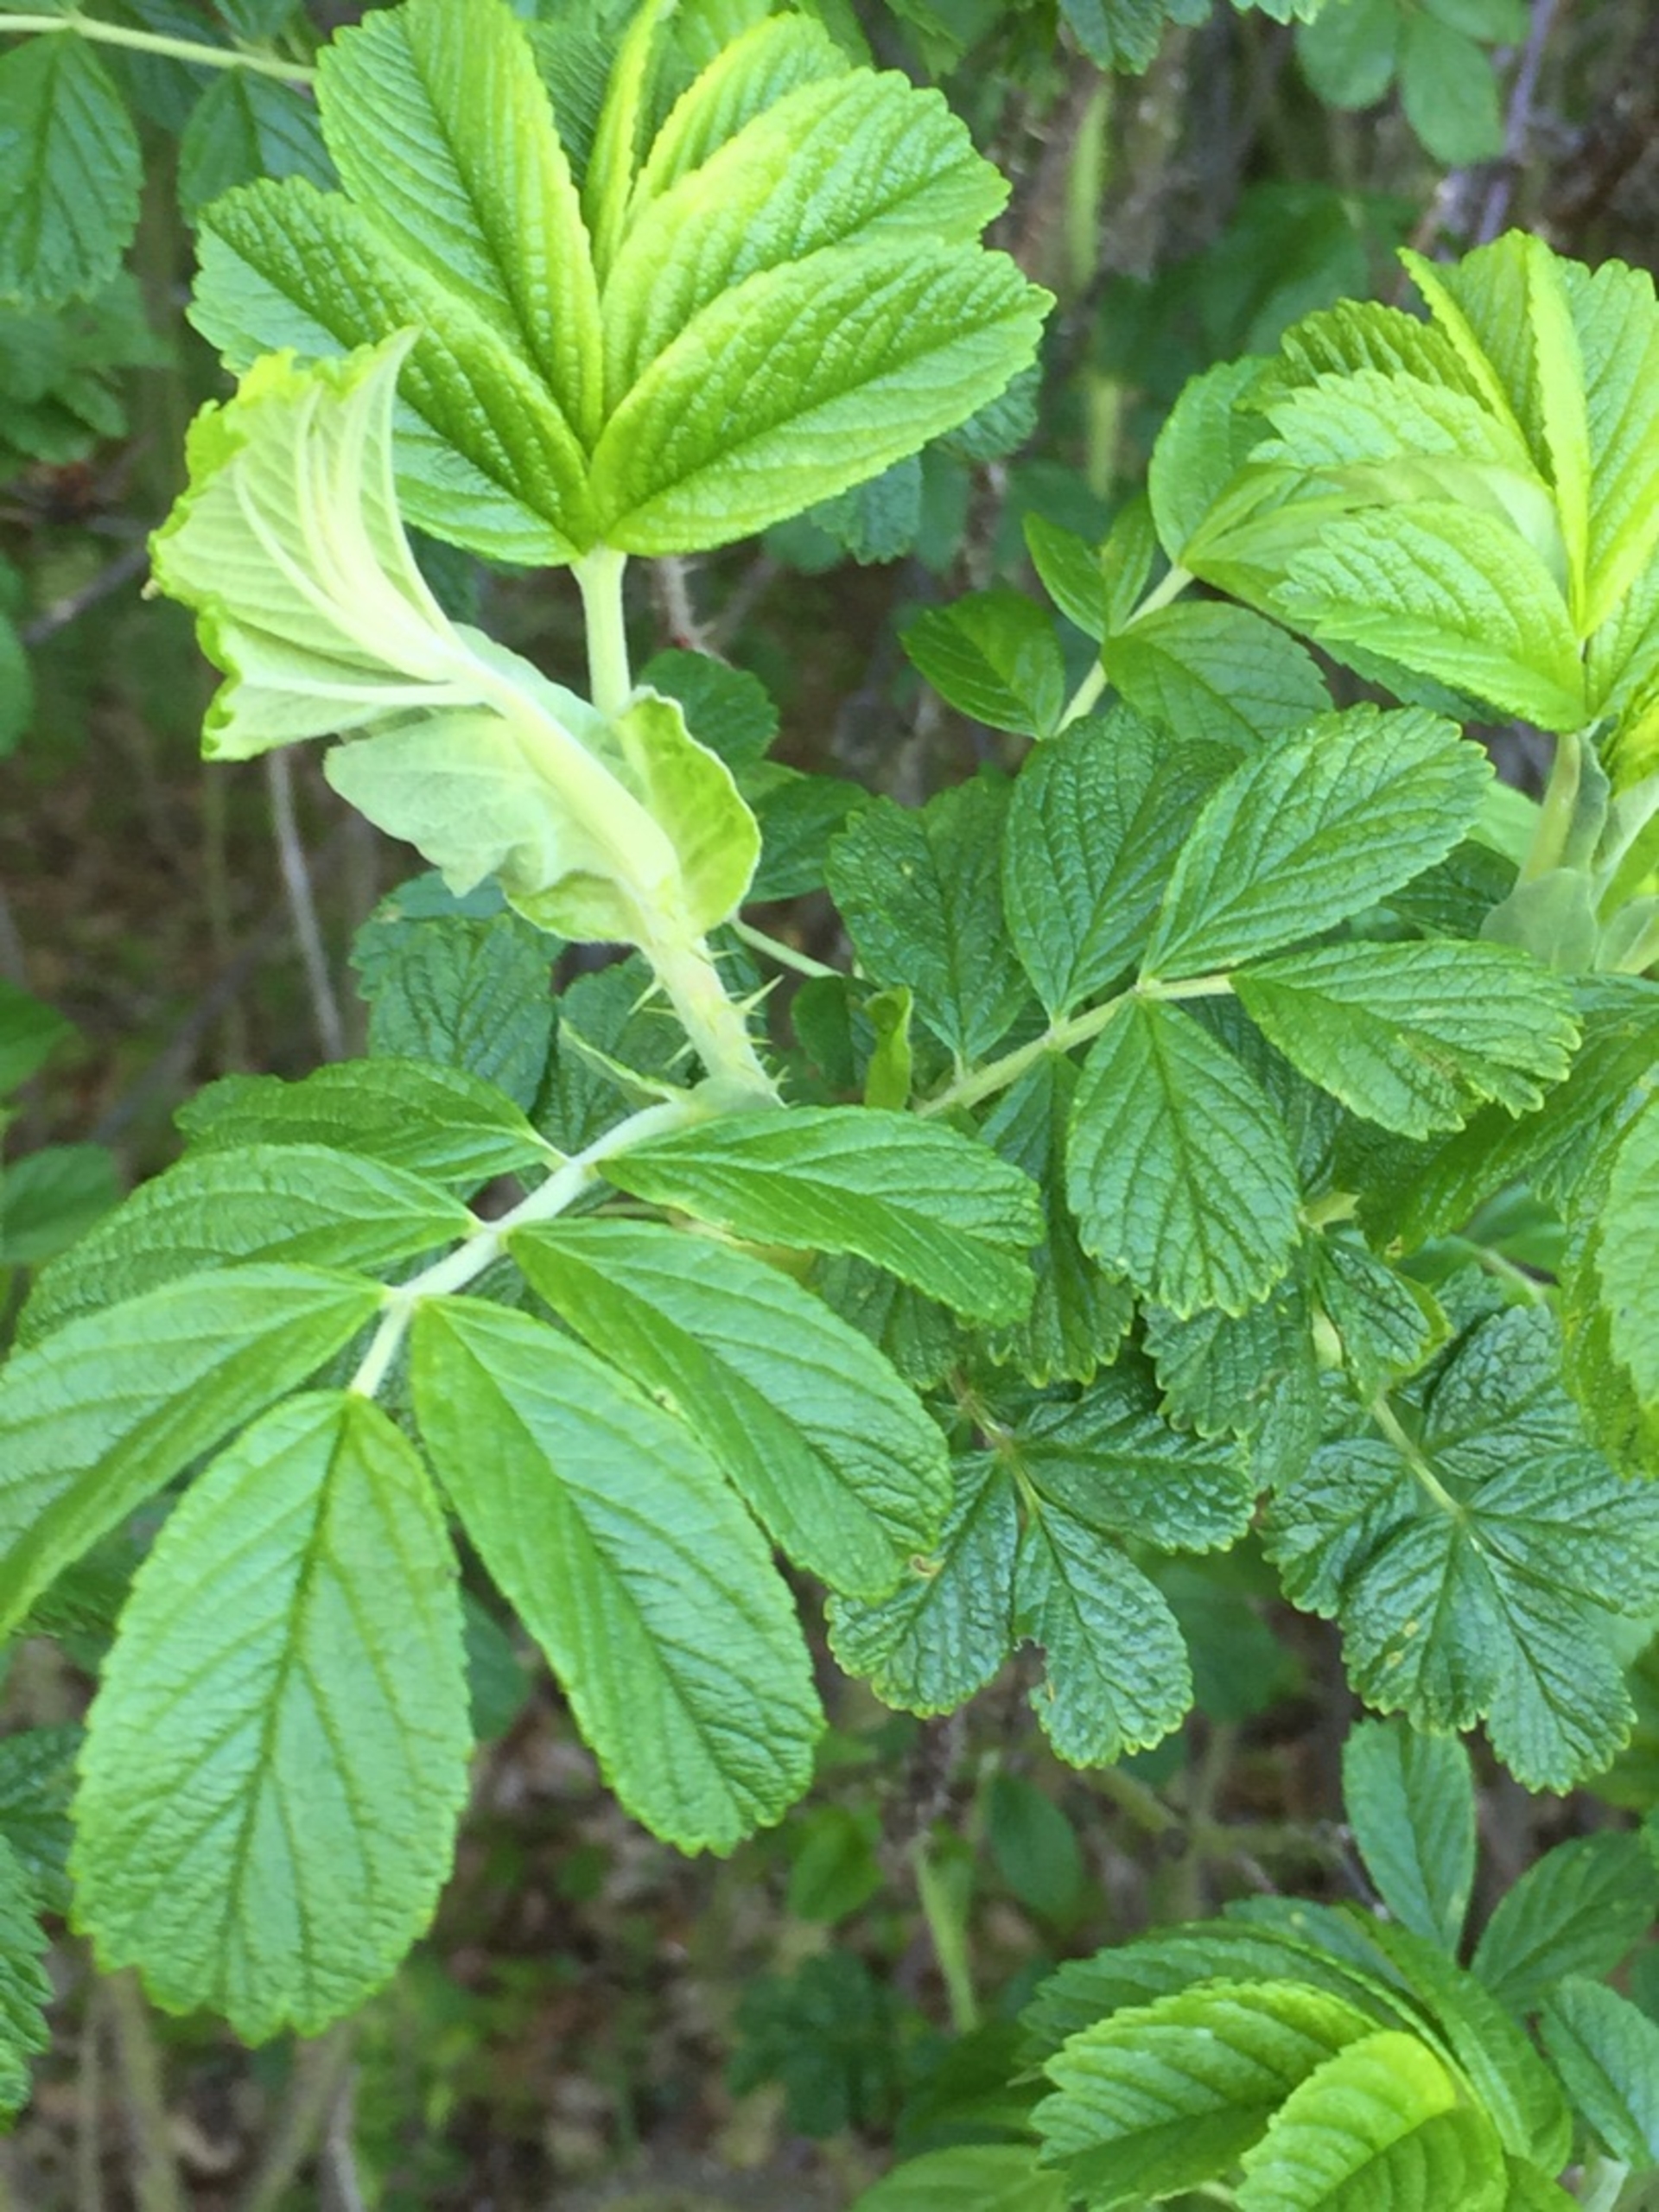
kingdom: Plantae
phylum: Tracheophyta
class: Magnoliopsida
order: Rosales
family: Rosaceae
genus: Rosa
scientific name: Rosa rugosa
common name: Rynket rose
